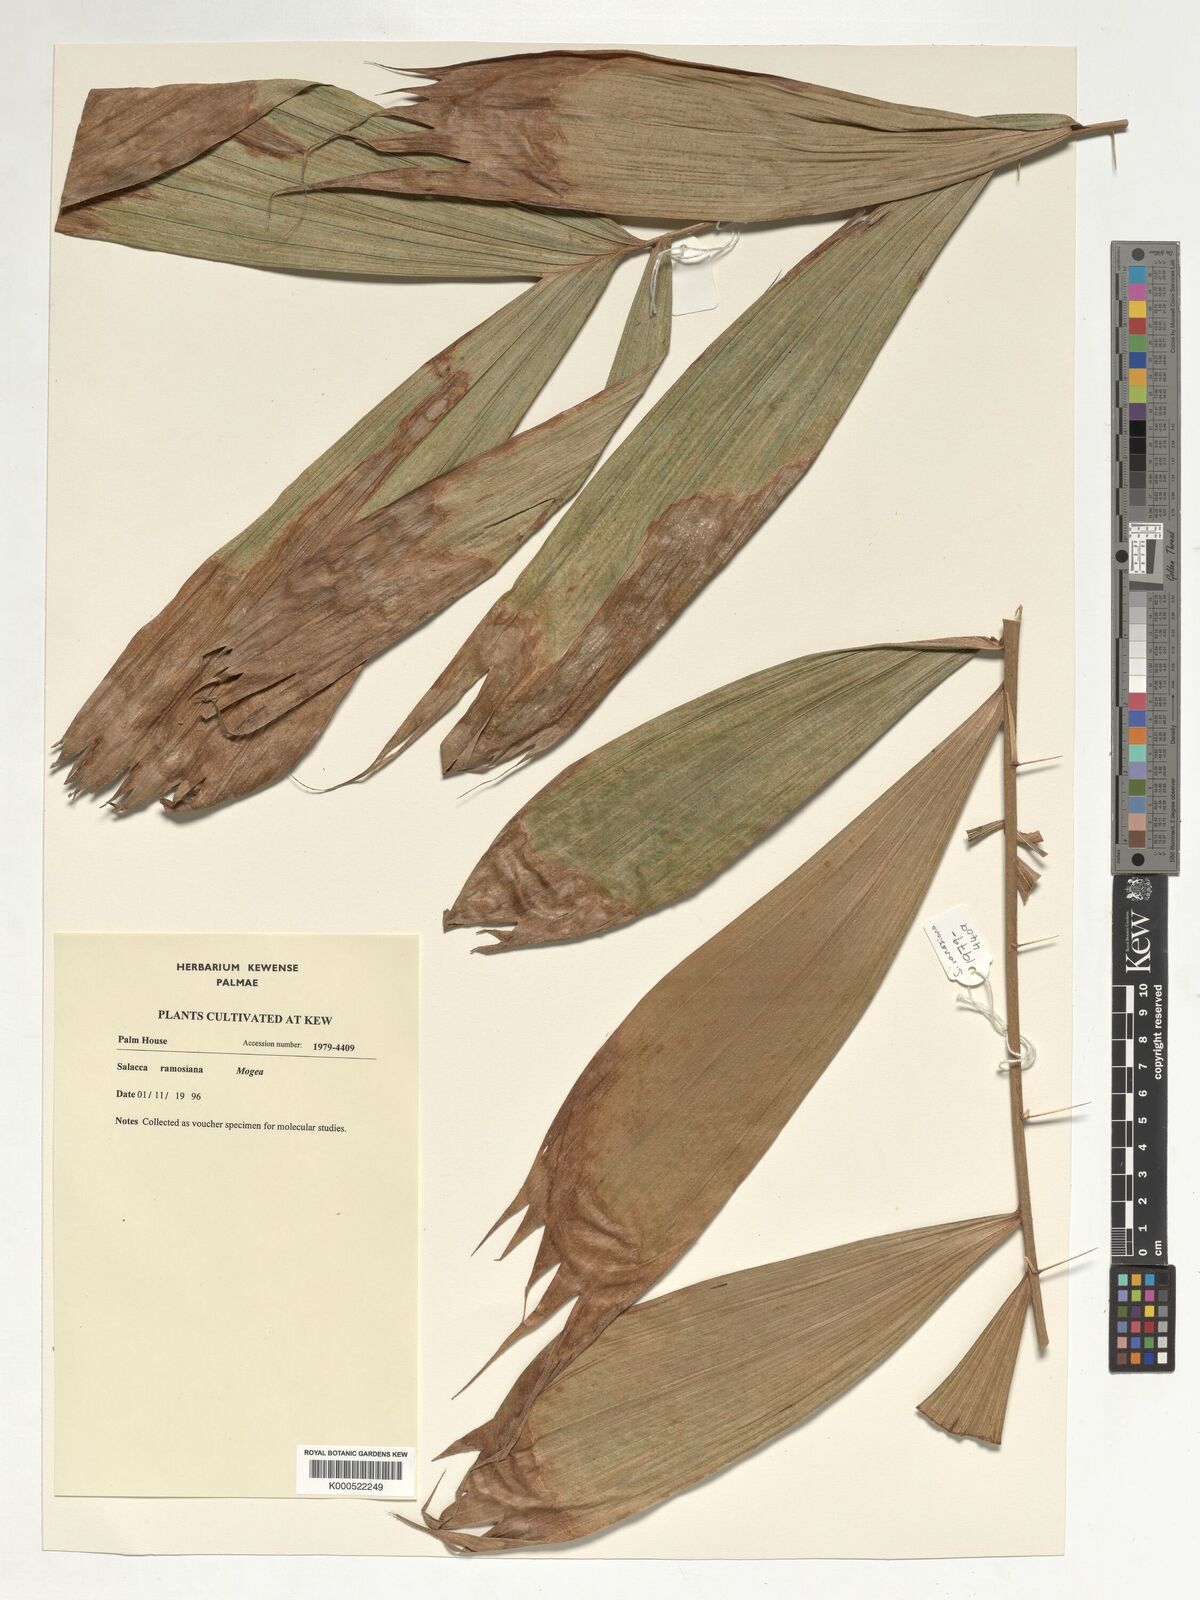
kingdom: Plantae
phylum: Tracheophyta
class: Liliopsida
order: Arecales
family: Arecaceae
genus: Salacca
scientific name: Salacca ramosiana
